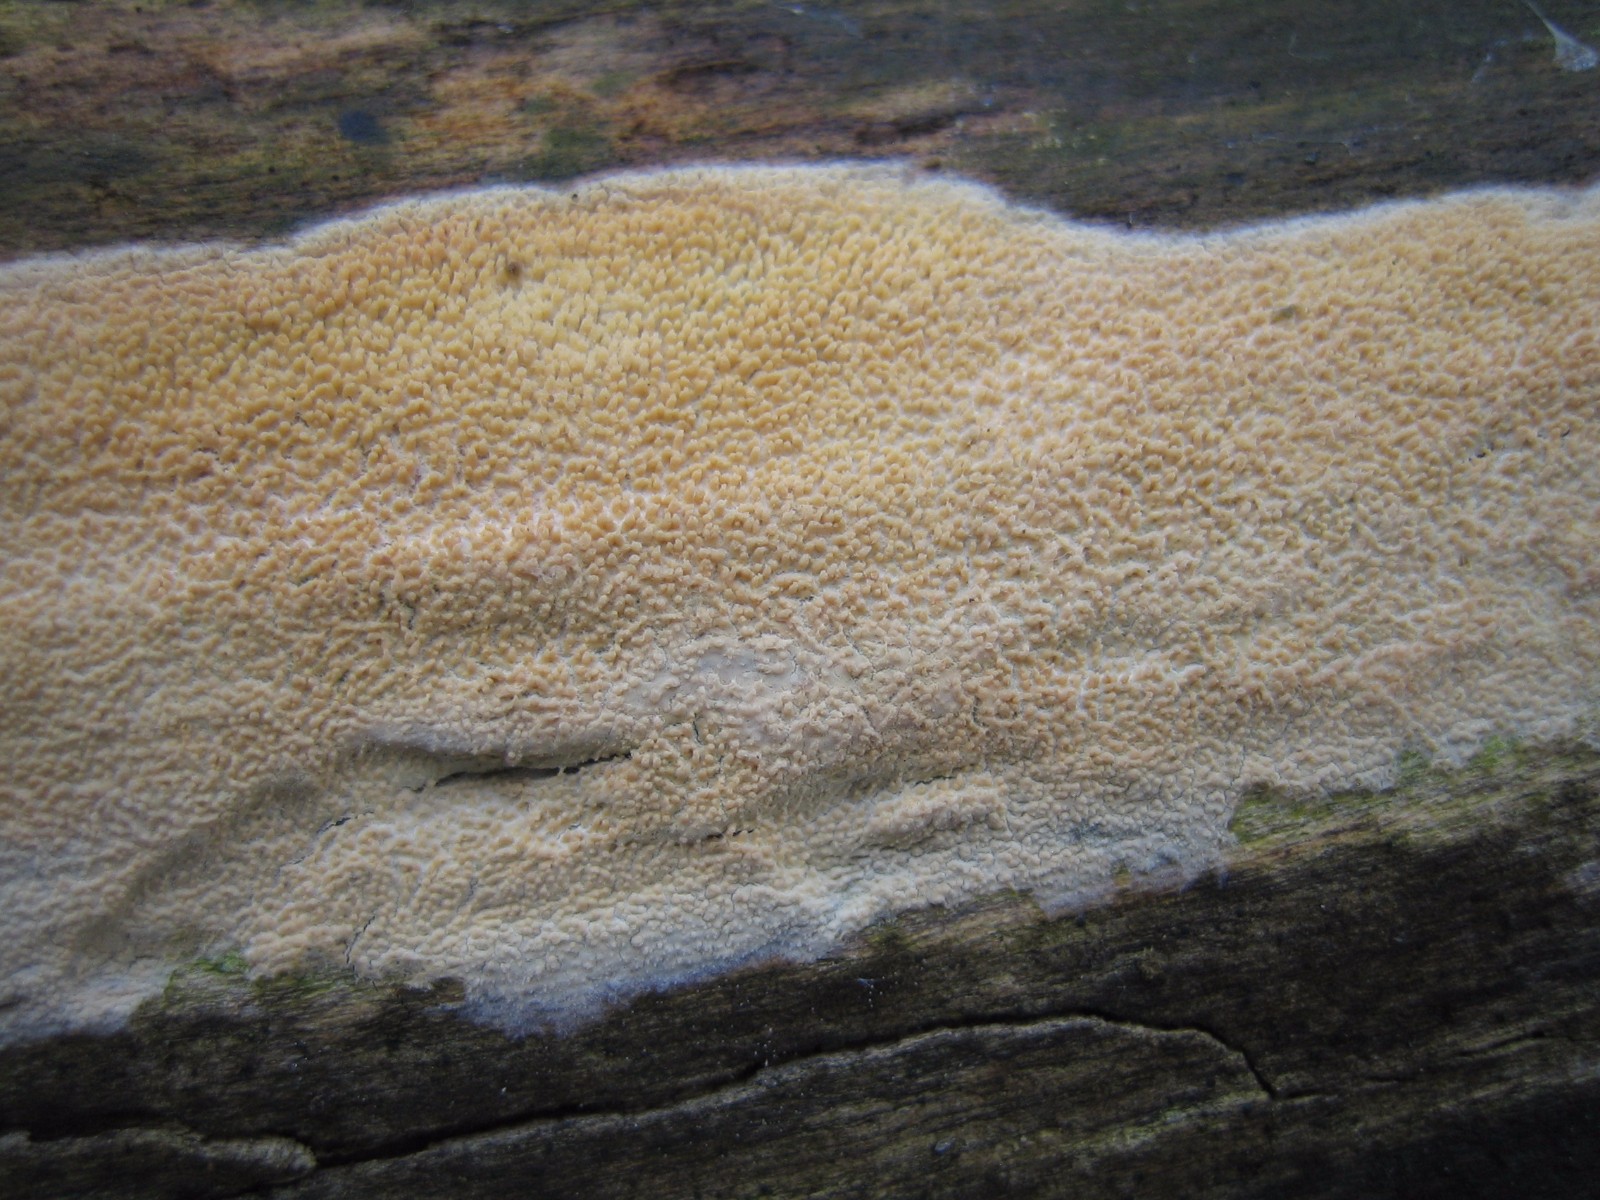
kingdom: Fungi
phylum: Basidiomycota
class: Agaricomycetes
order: Hymenochaetales
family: Schizoporaceae
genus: Xylodon
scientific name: Xylodon
